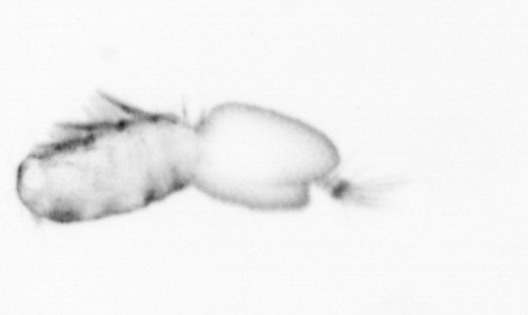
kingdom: Animalia
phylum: Arthropoda
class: Copepoda
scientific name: Copepoda
